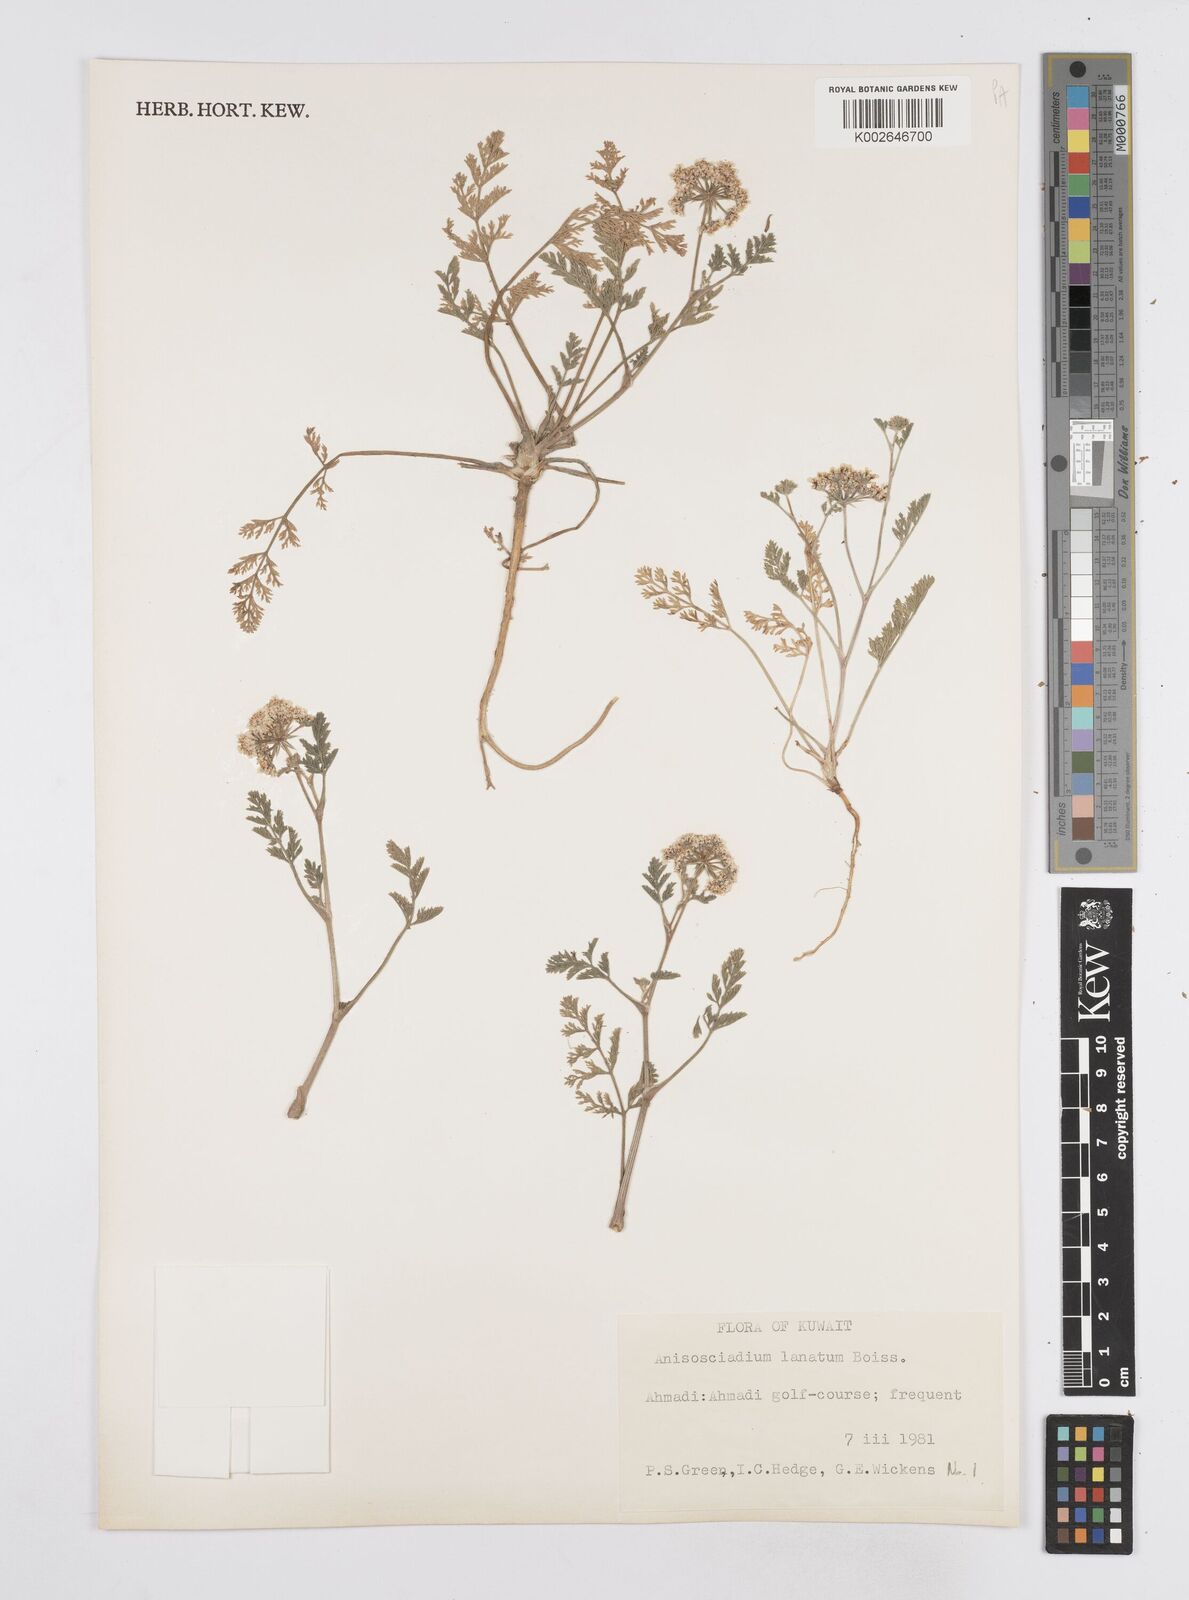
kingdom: Plantae
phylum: Tracheophyta
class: Magnoliopsida
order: Apiales
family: Apiaceae
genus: Anisosciadium
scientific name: Anisosciadium orientale
